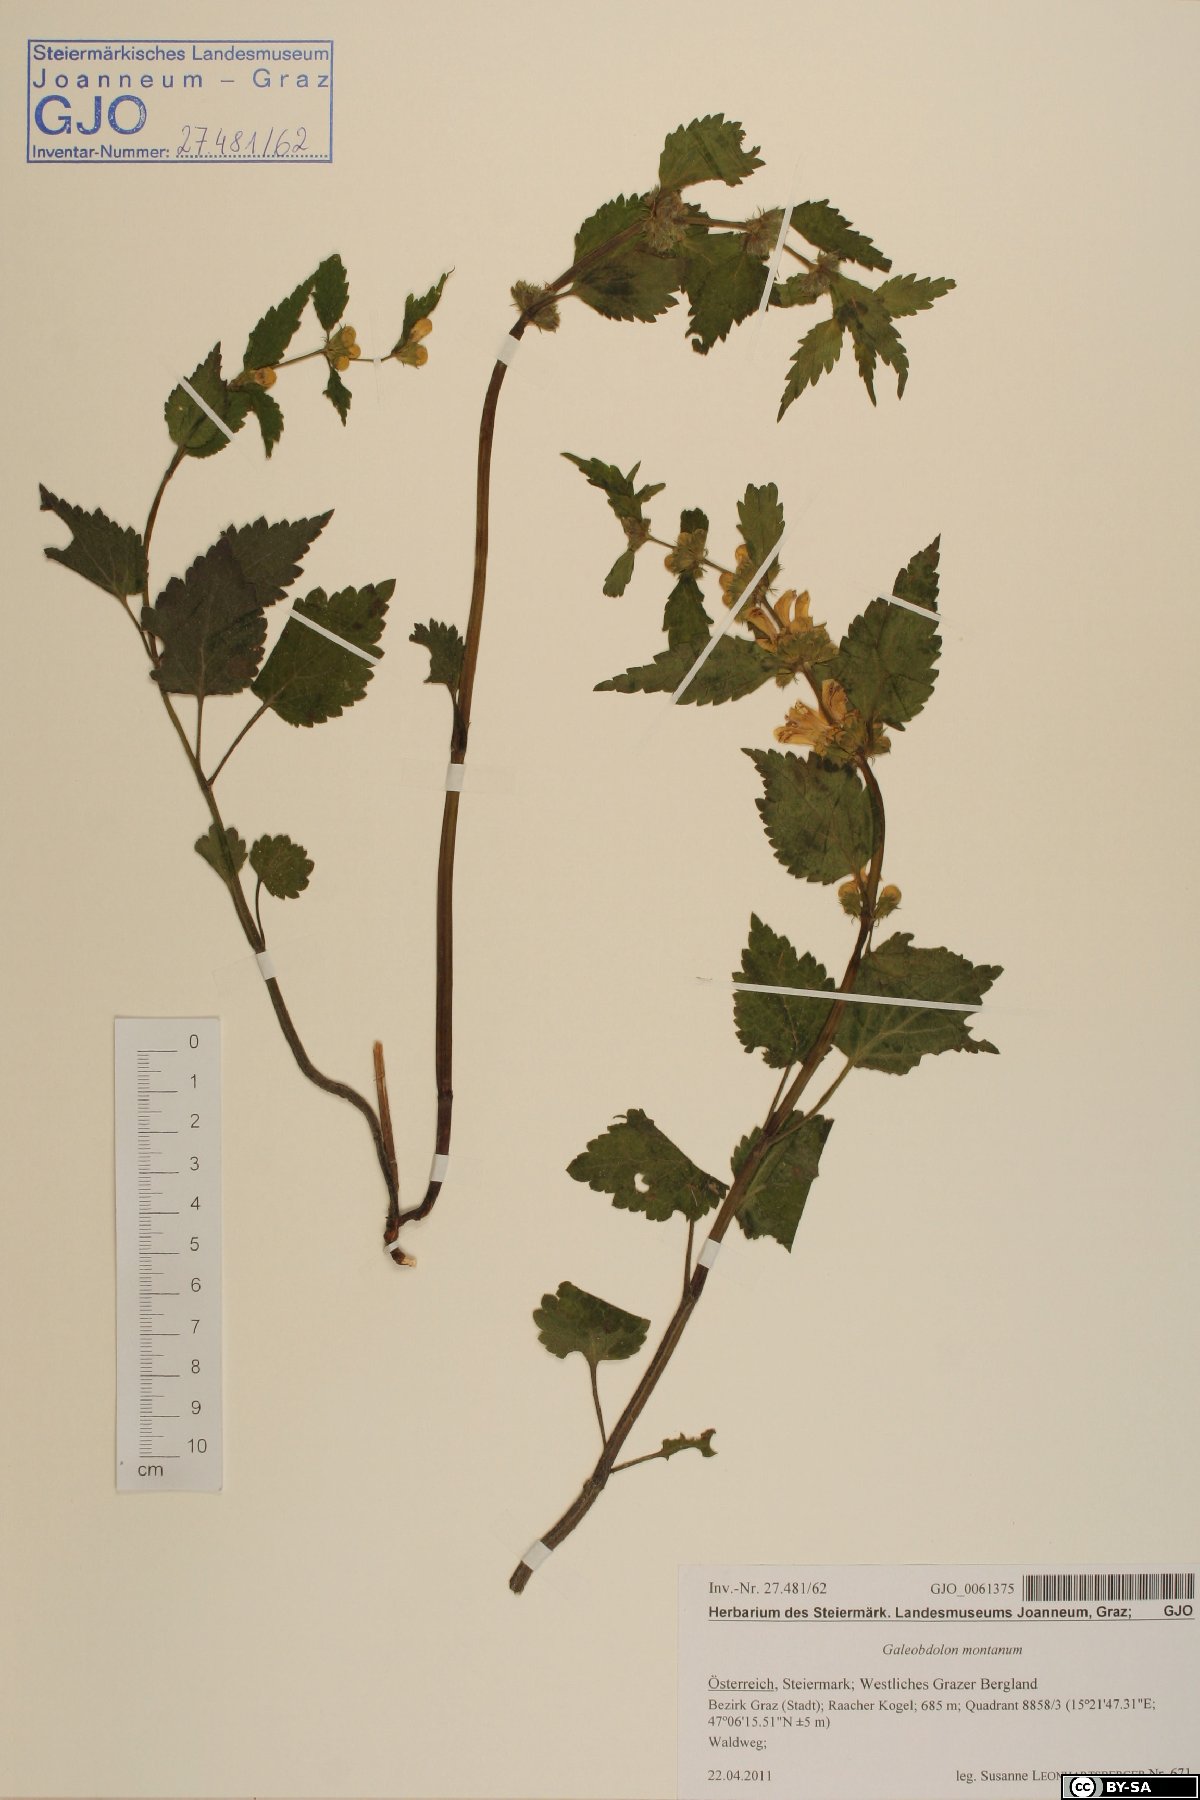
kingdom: Plantae
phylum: Tracheophyta
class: Magnoliopsida
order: Lamiales
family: Lamiaceae
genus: Lamium
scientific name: Lamium galeobdolon
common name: Yellow archangel
